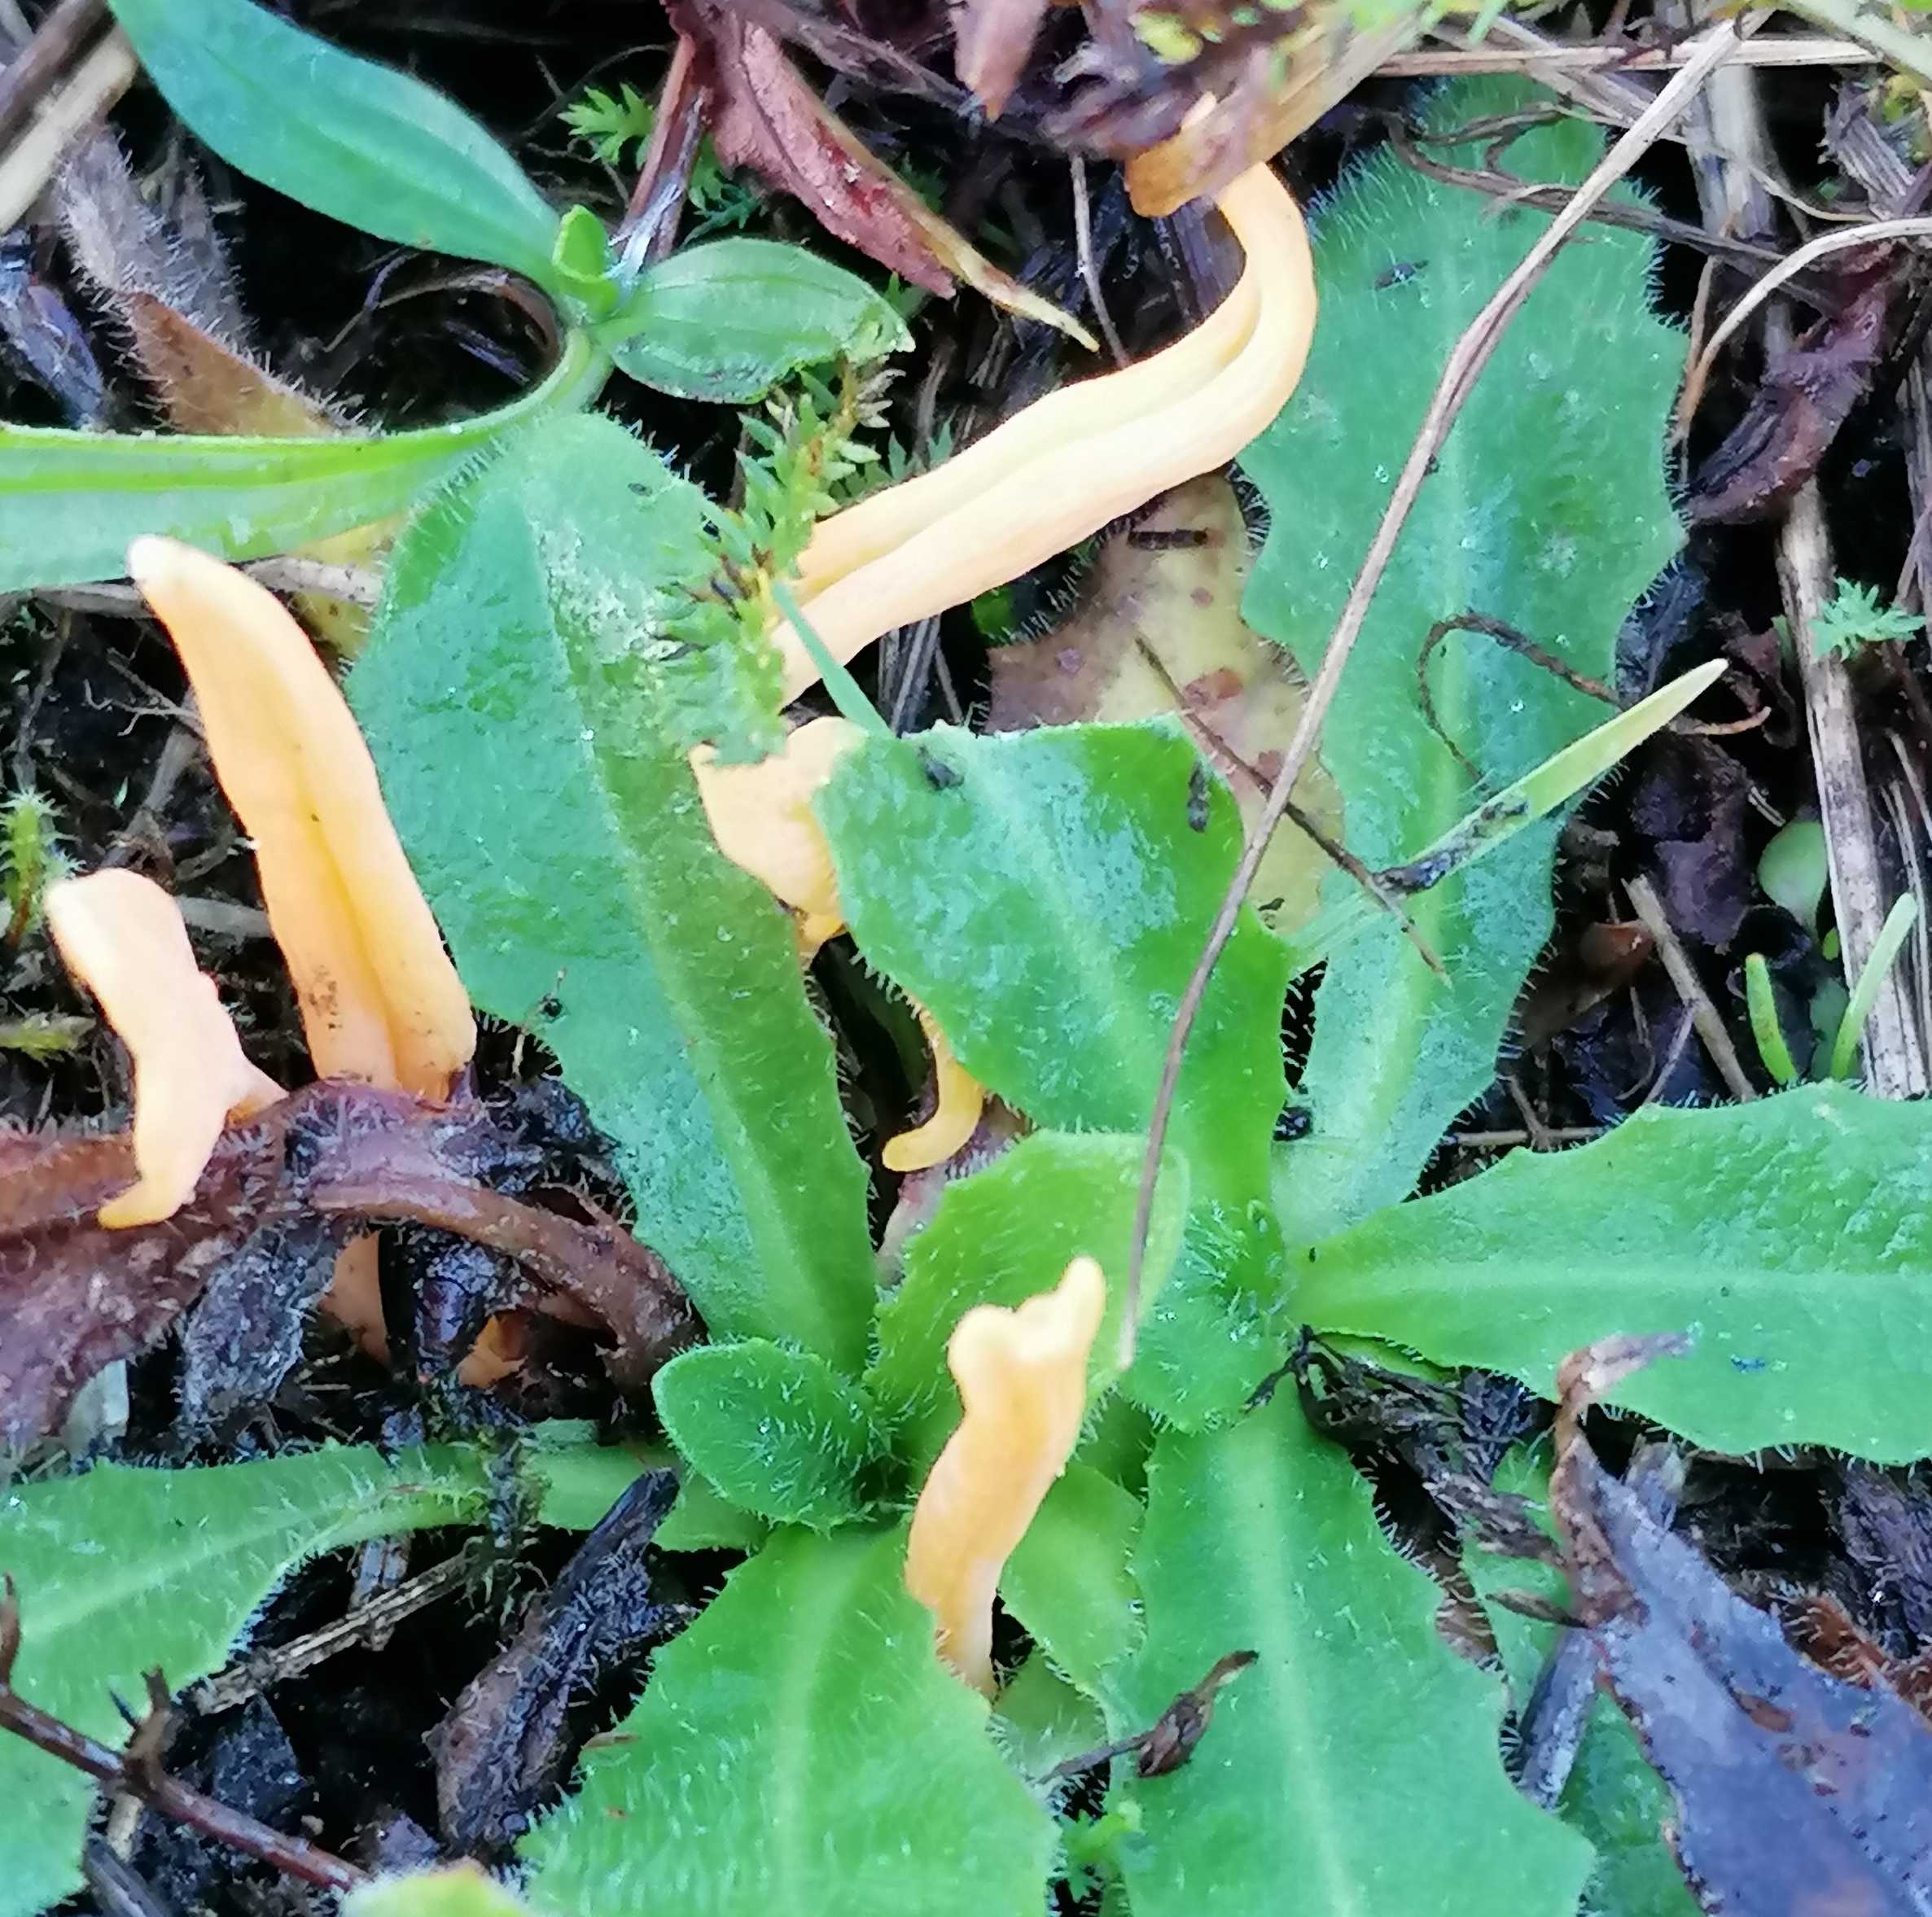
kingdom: Fungi
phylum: Basidiomycota
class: Agaricomycetes
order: Agaricales
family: Clavariaceae
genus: Clavulinopsis
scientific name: Clavulinopsis
